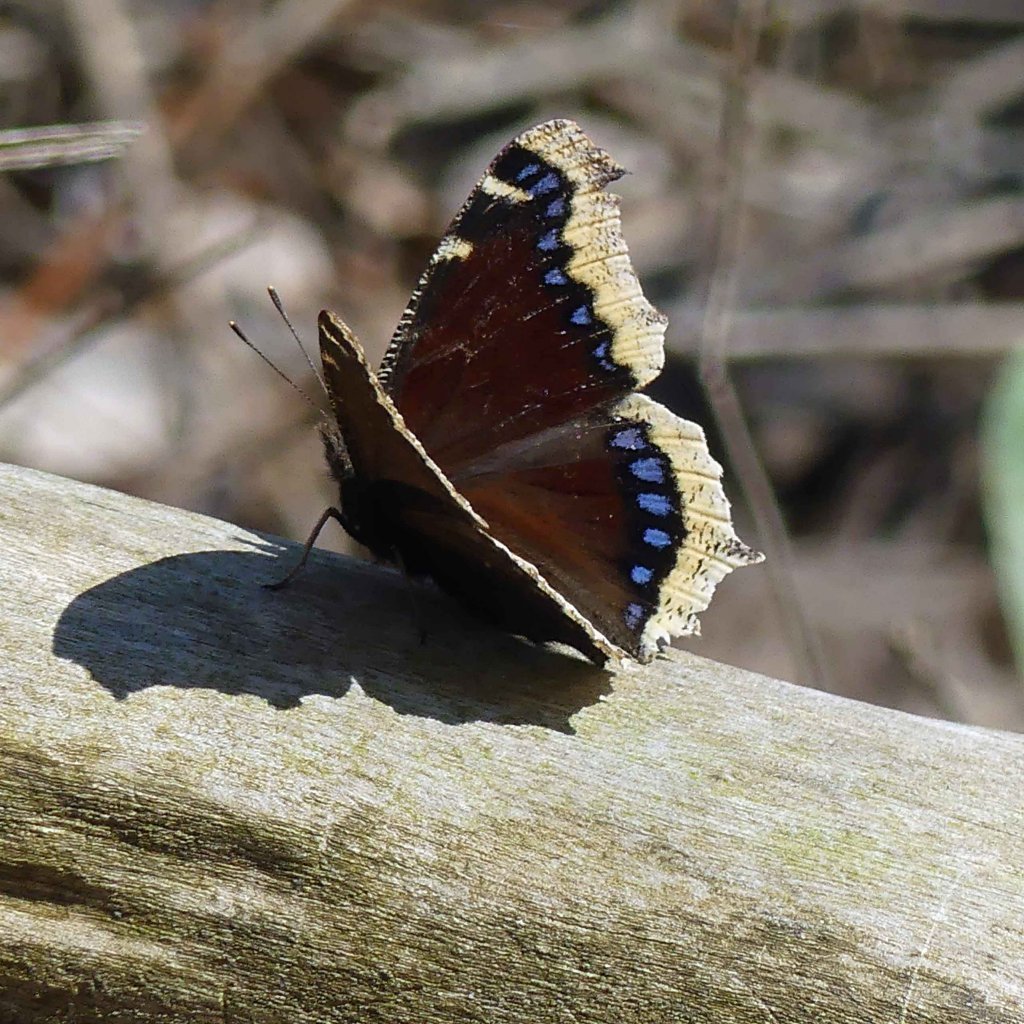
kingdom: Animalia
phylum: Arthropoda
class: Insecta
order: Lepidoptera
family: Nymphalidae
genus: Nymphalis
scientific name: Nymphalis antiopa
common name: Mourning Cloak
